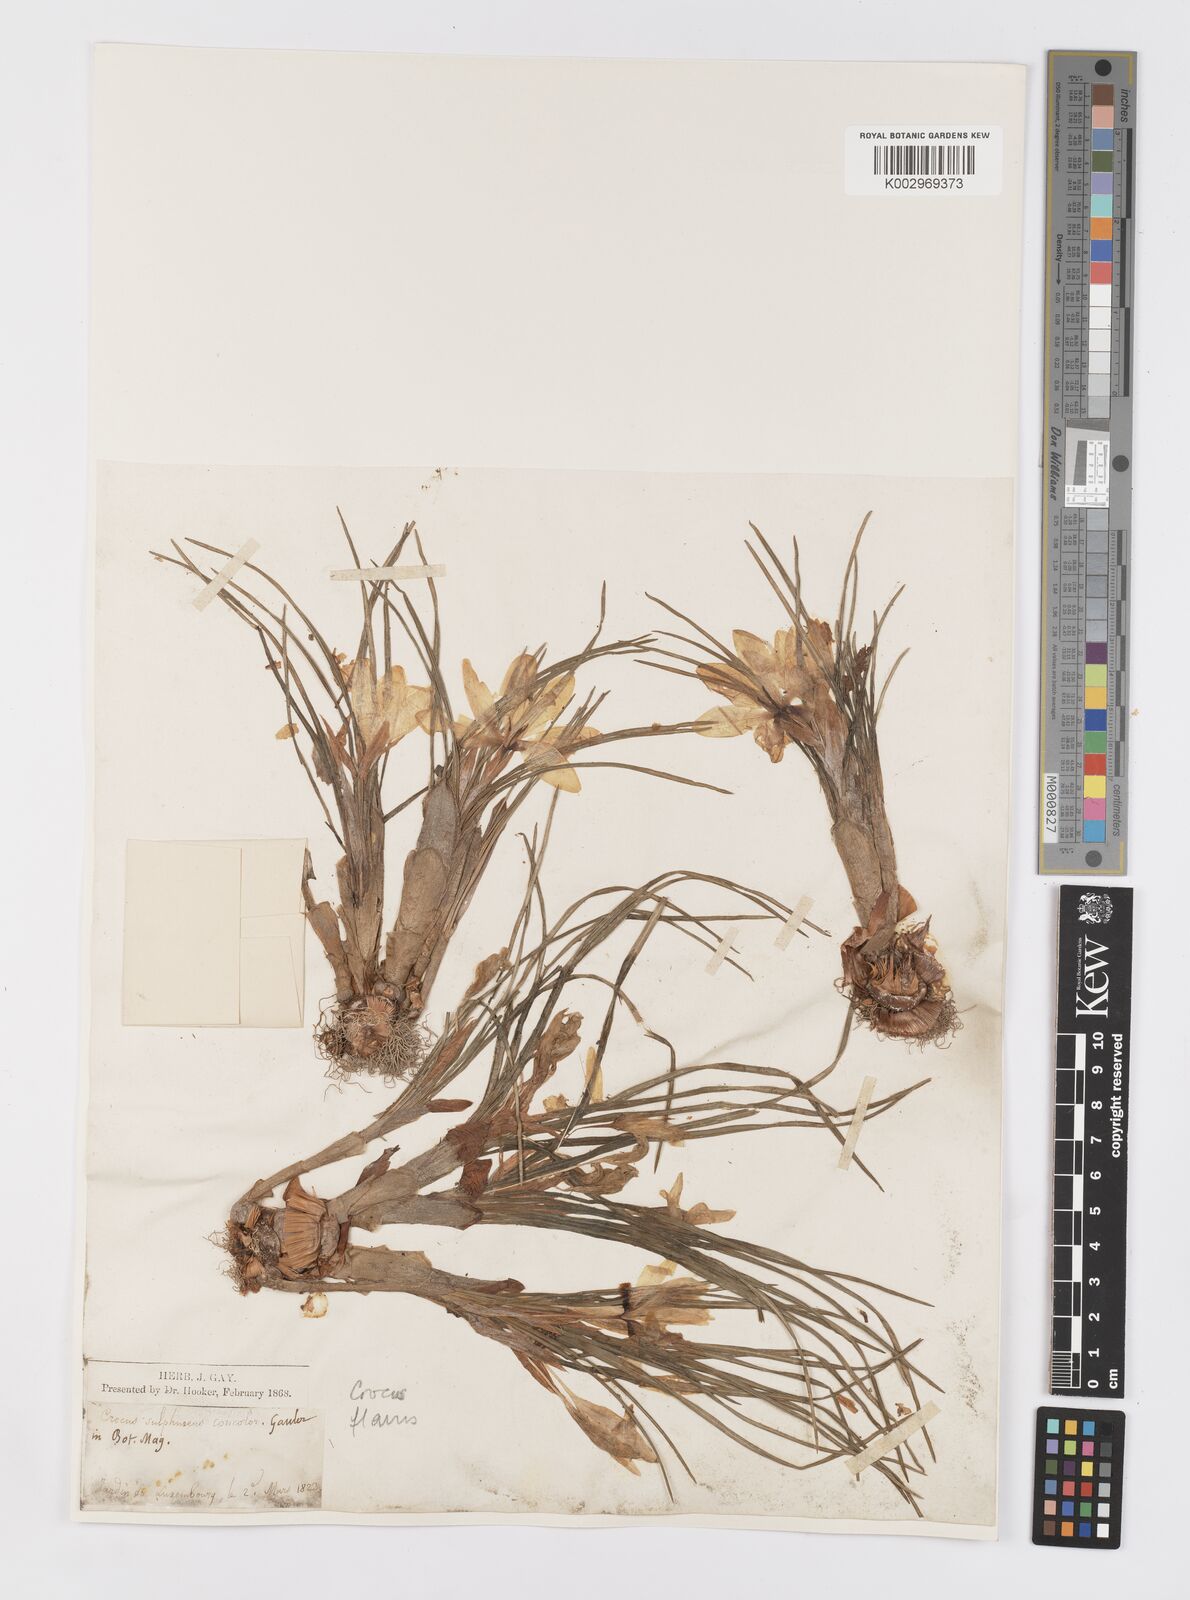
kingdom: Plantae
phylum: Tracheophyta
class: Liliopsida
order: Asparagales
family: Iridaceae
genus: Crocus
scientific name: Crocus flavus
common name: Yellow crocus
